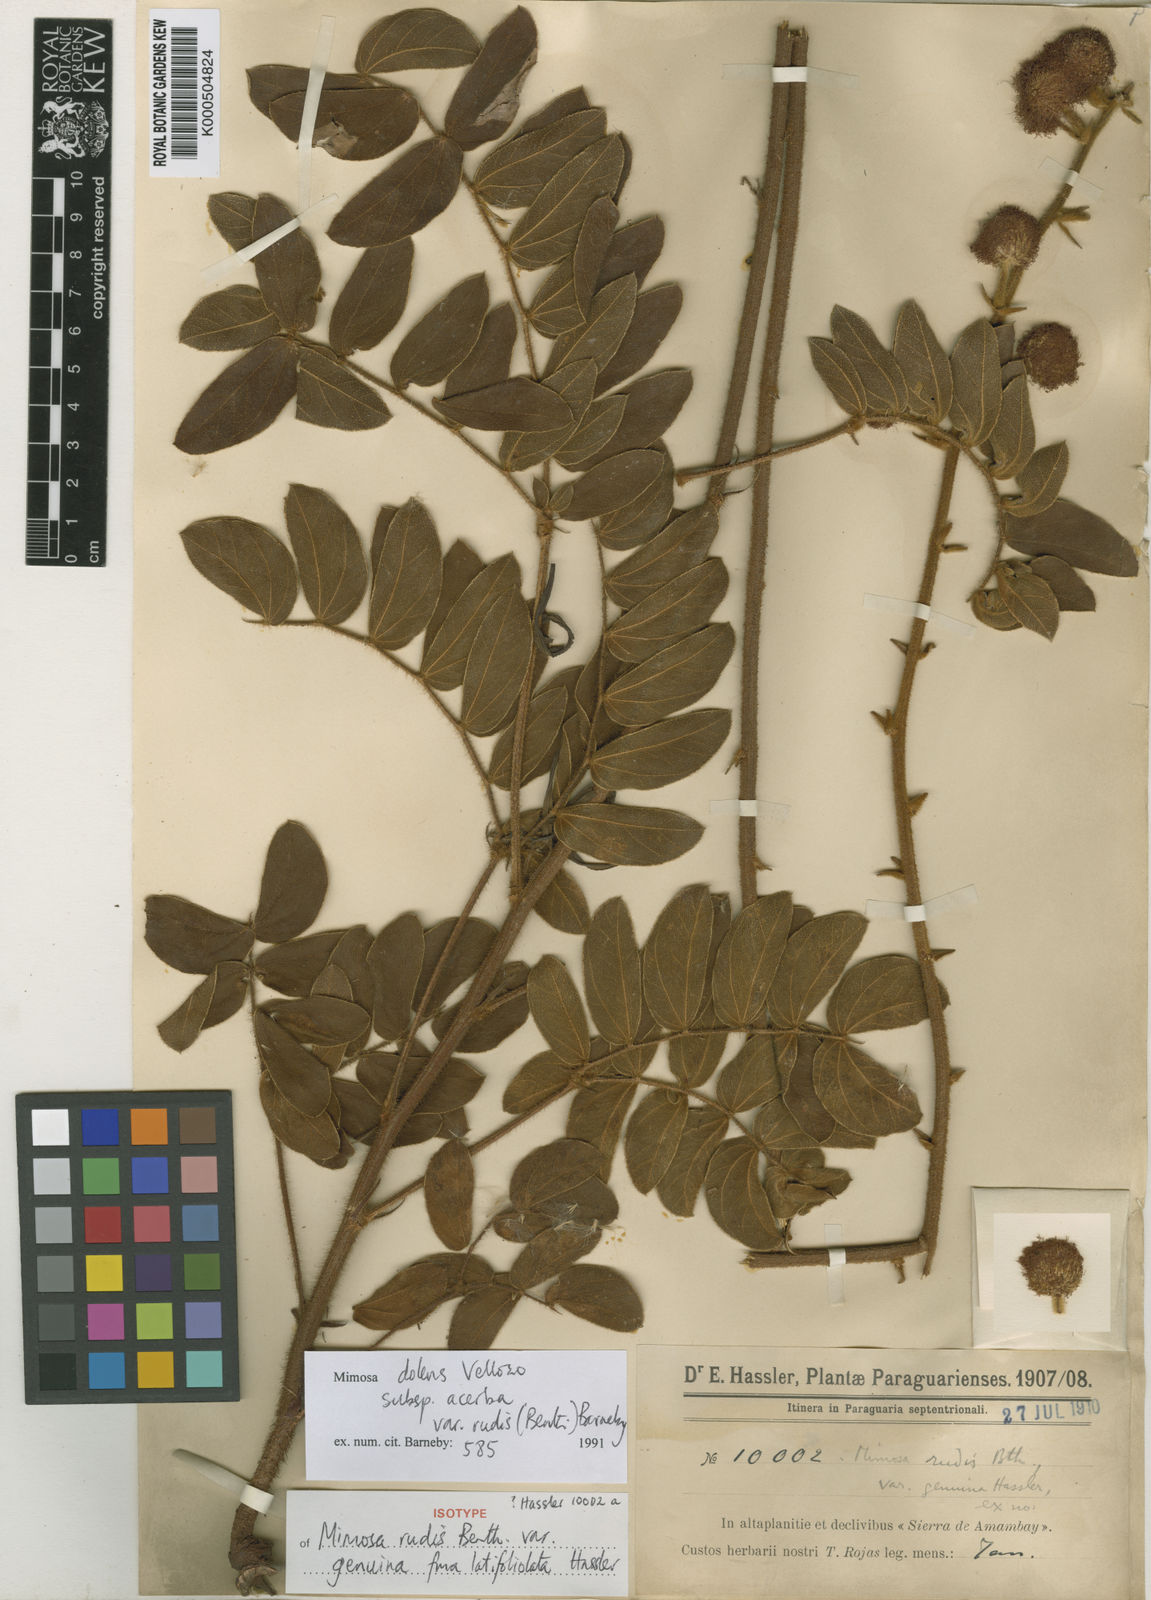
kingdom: Plantae
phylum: Tracheophyta
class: Magnoliopsida
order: Fabales
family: Fabaceae
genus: Mimosa
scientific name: Mimosa dolens
